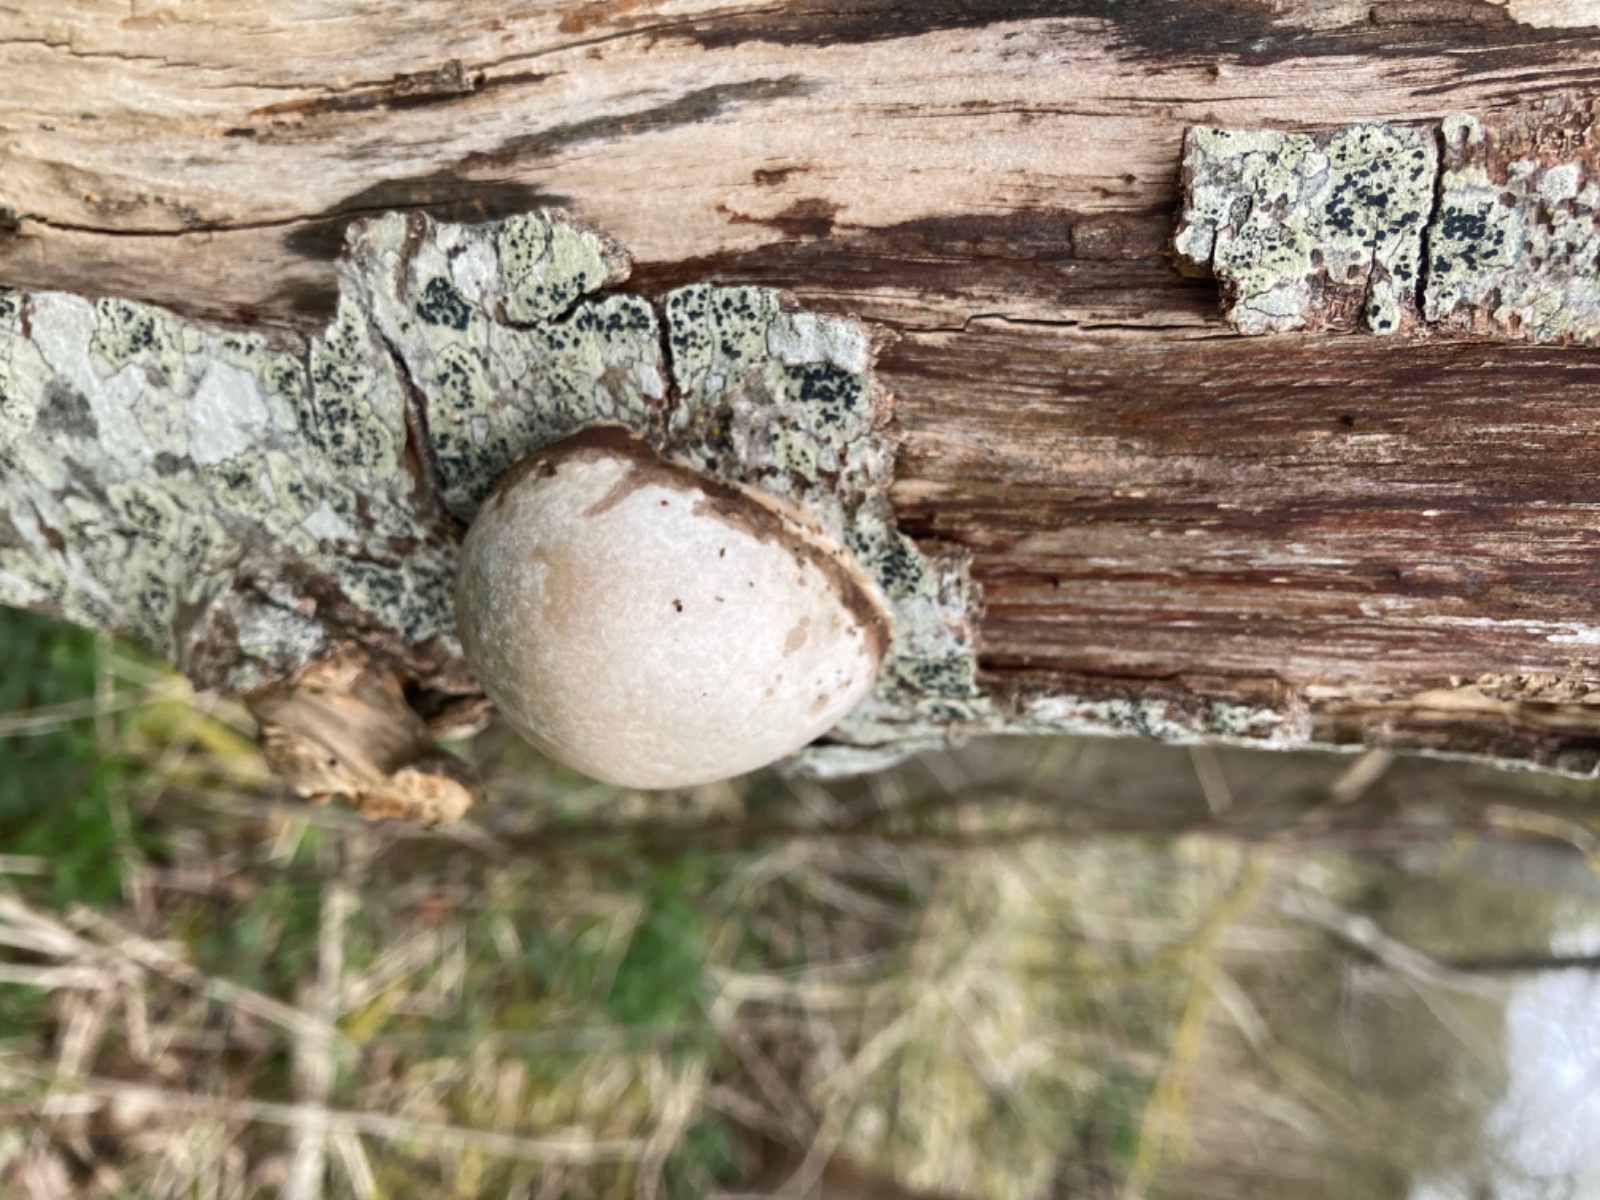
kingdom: Protozoa
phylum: Mycetozoa
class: Myxomycetes
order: Cribrariales
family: Tubiferaceae
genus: Reticularia
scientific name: Reticularia lycoperdon
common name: skinnende støvpude
